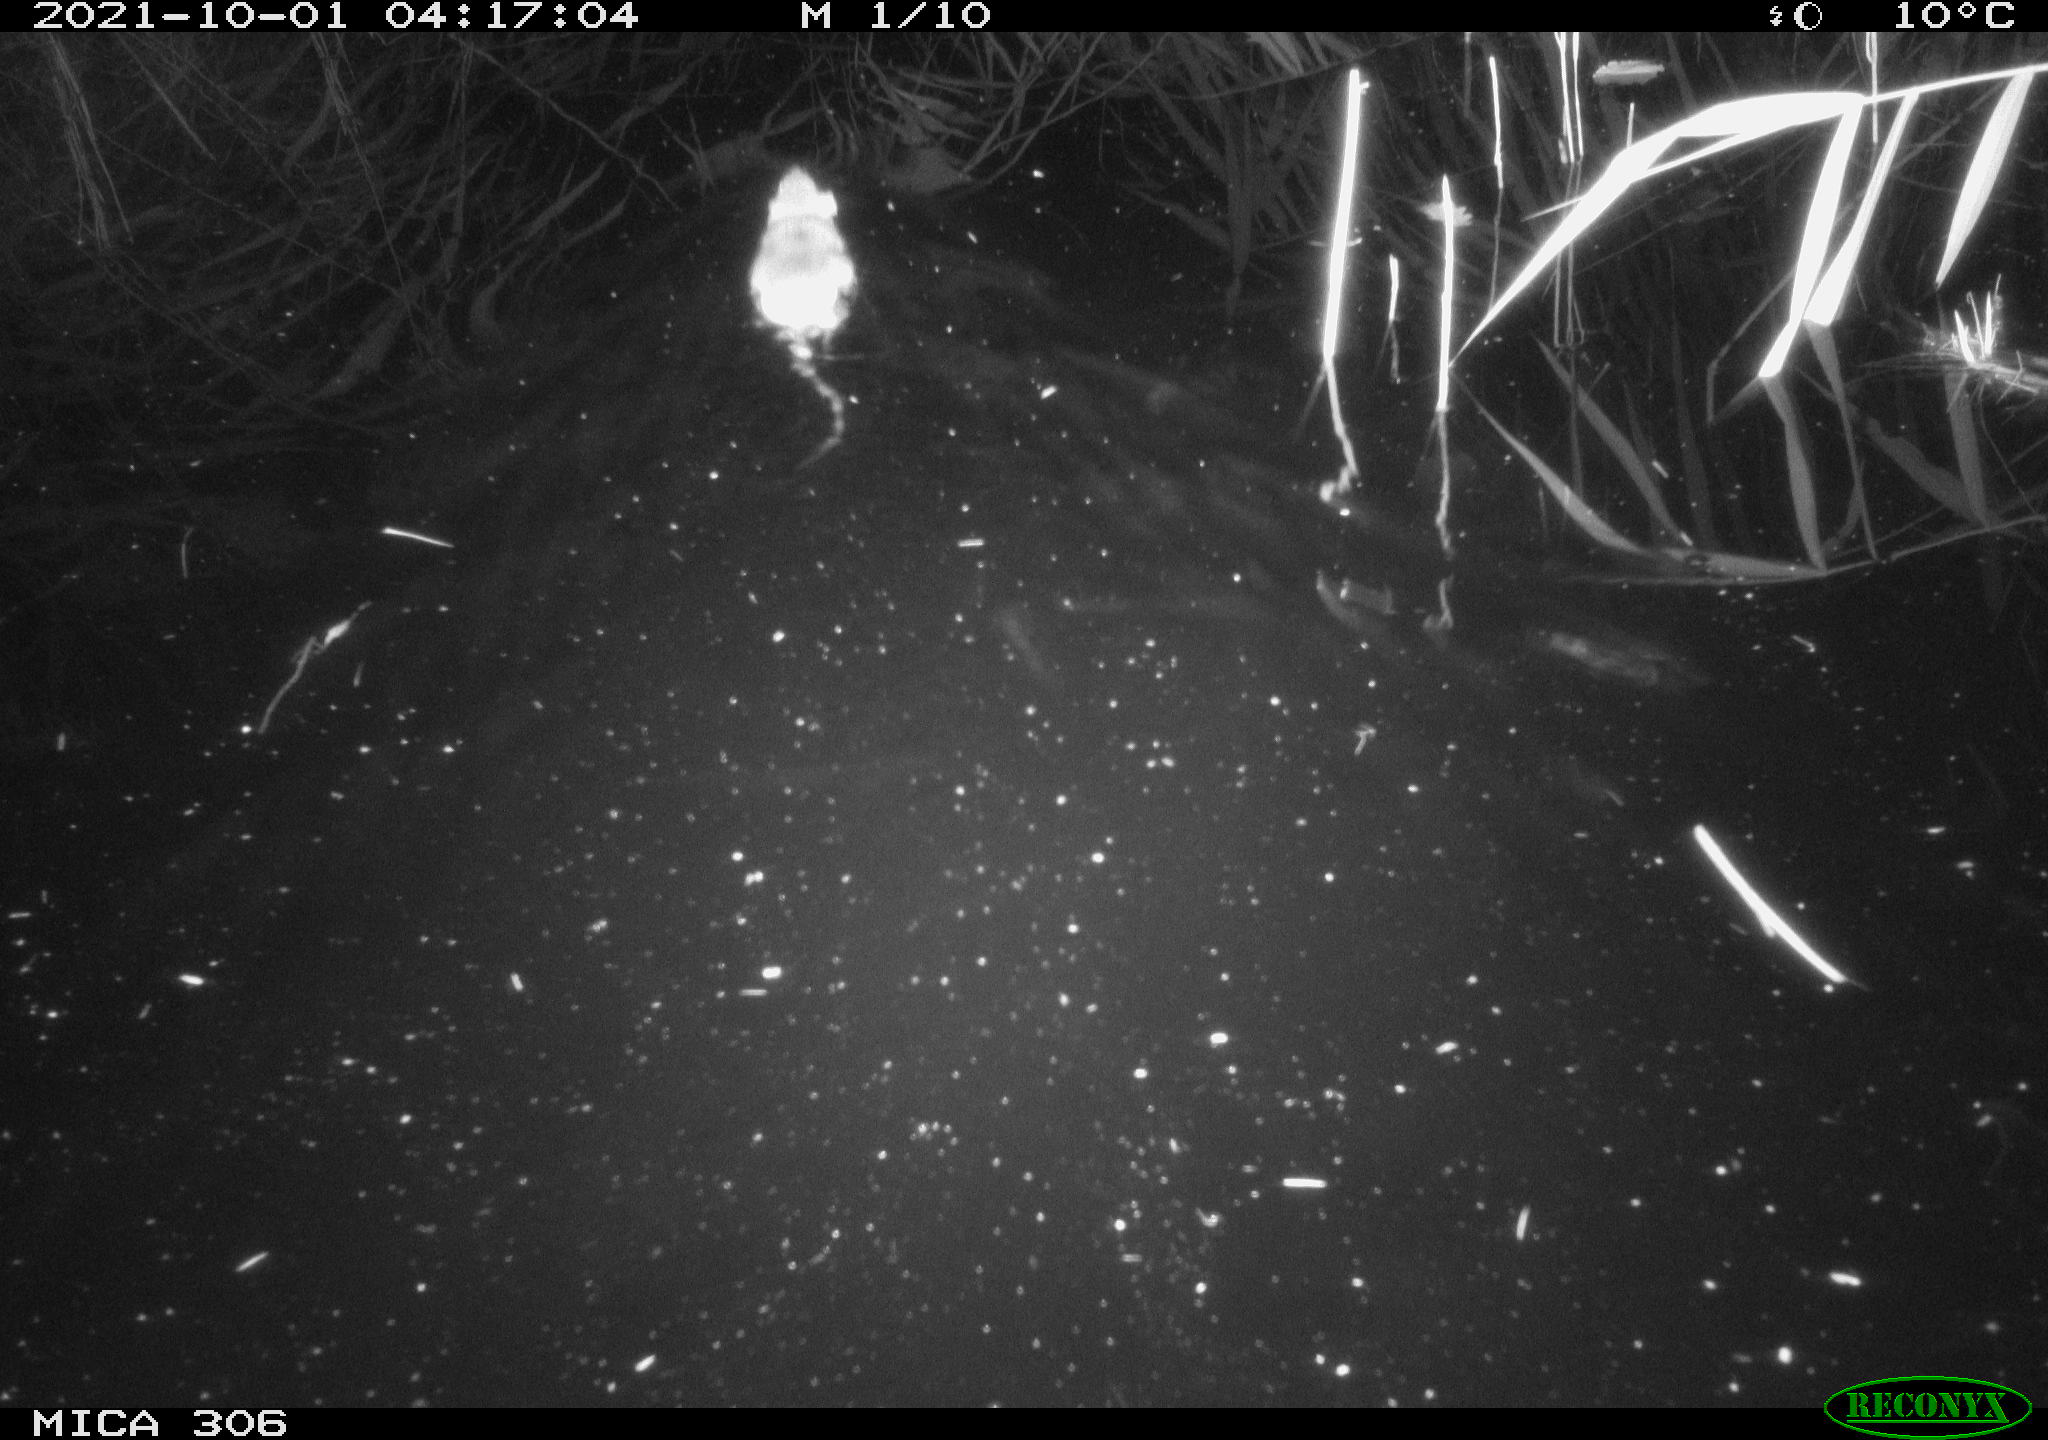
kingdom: Animalia
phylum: Chordata
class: Mammalia
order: Rodentia
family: Cricetidae
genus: Ondatra
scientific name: Ondatra zibethicus
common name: Muskrat
